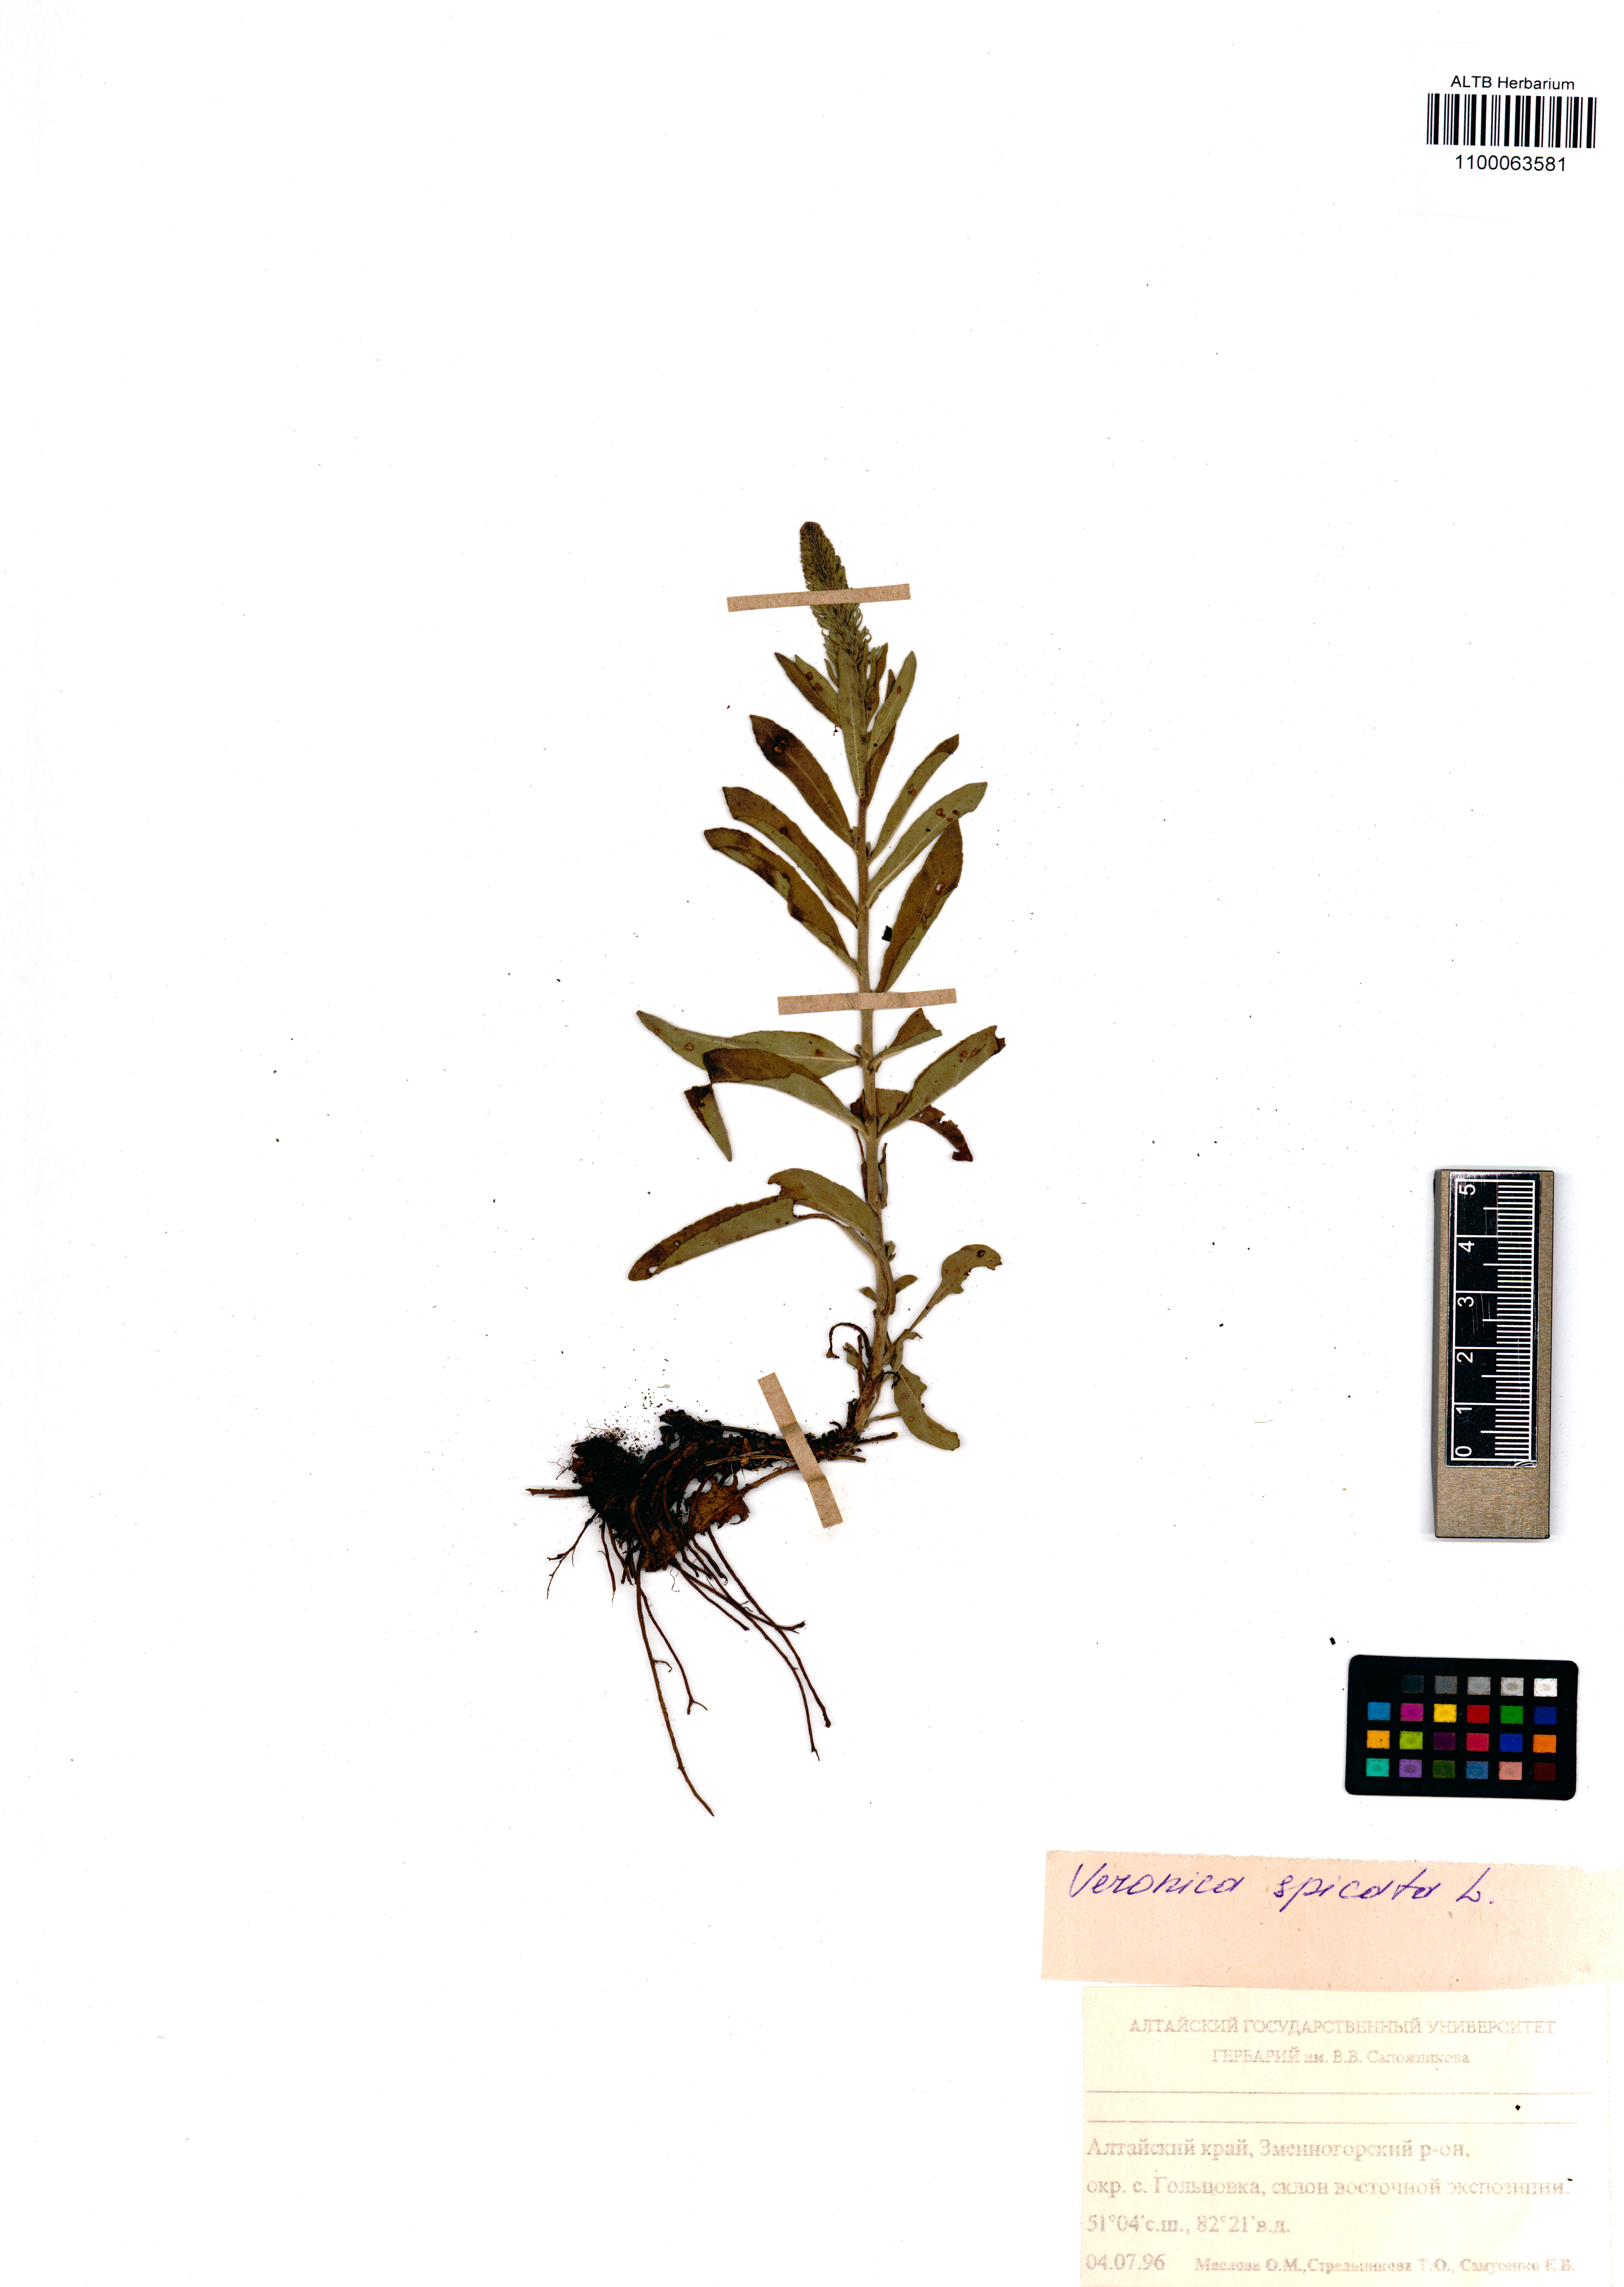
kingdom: Plantae
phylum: Tracheophyta
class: Magnoliopsida
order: Lamiales
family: Plantaginaceae
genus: Veronica
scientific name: Veronica spicata
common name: Spiked speedwell
